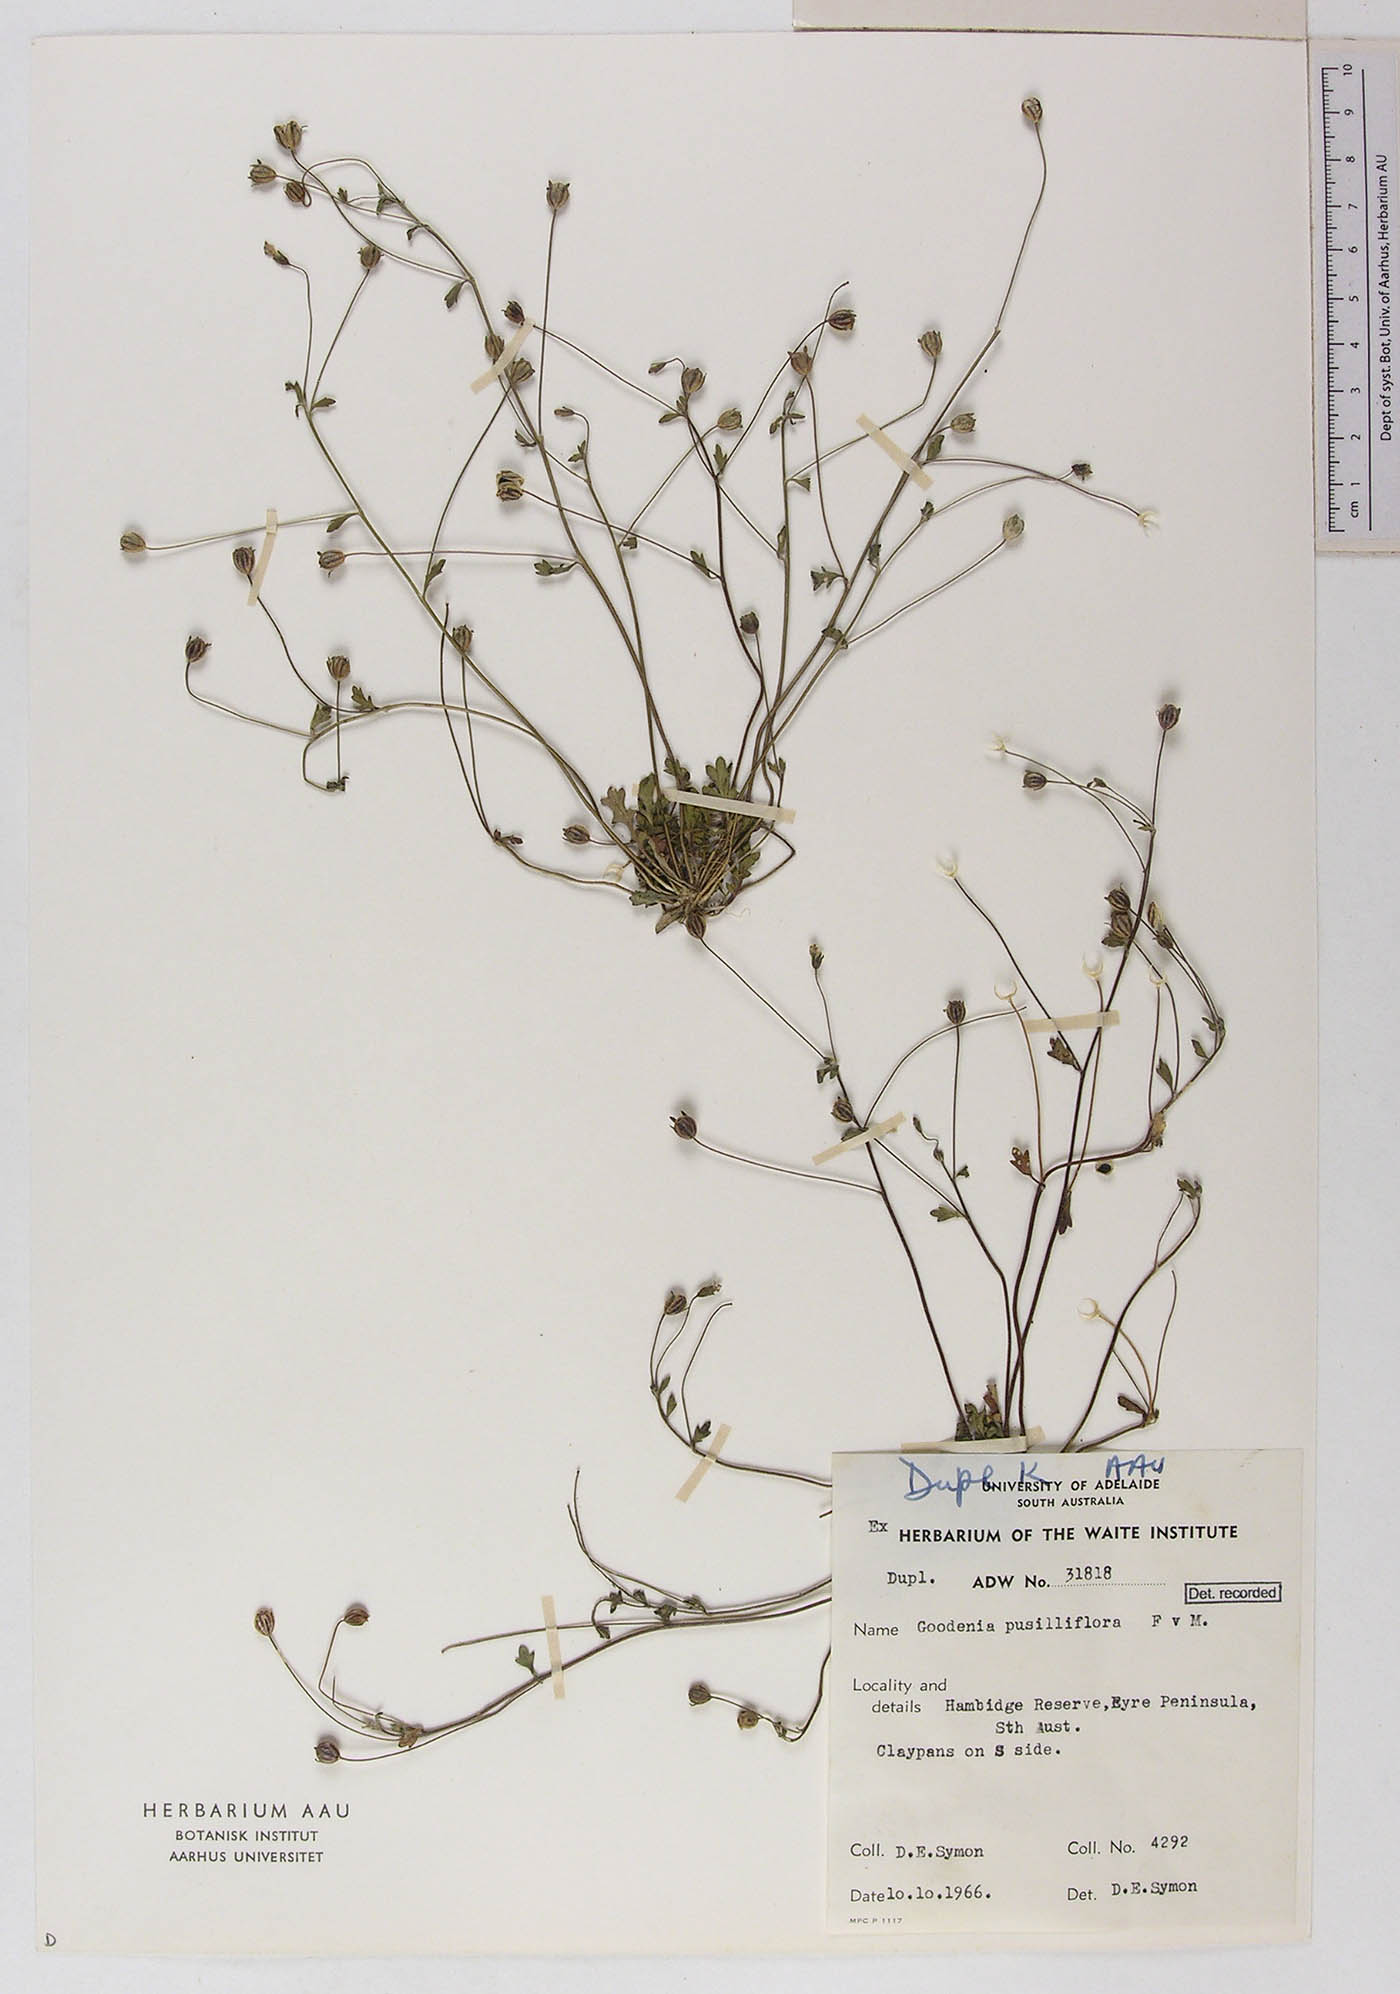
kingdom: Plantae
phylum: Tracheophyta
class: Magnoliopsida
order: Asterales
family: Goodeniaceae
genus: Goodenia
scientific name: Goodenia pusilliflora
